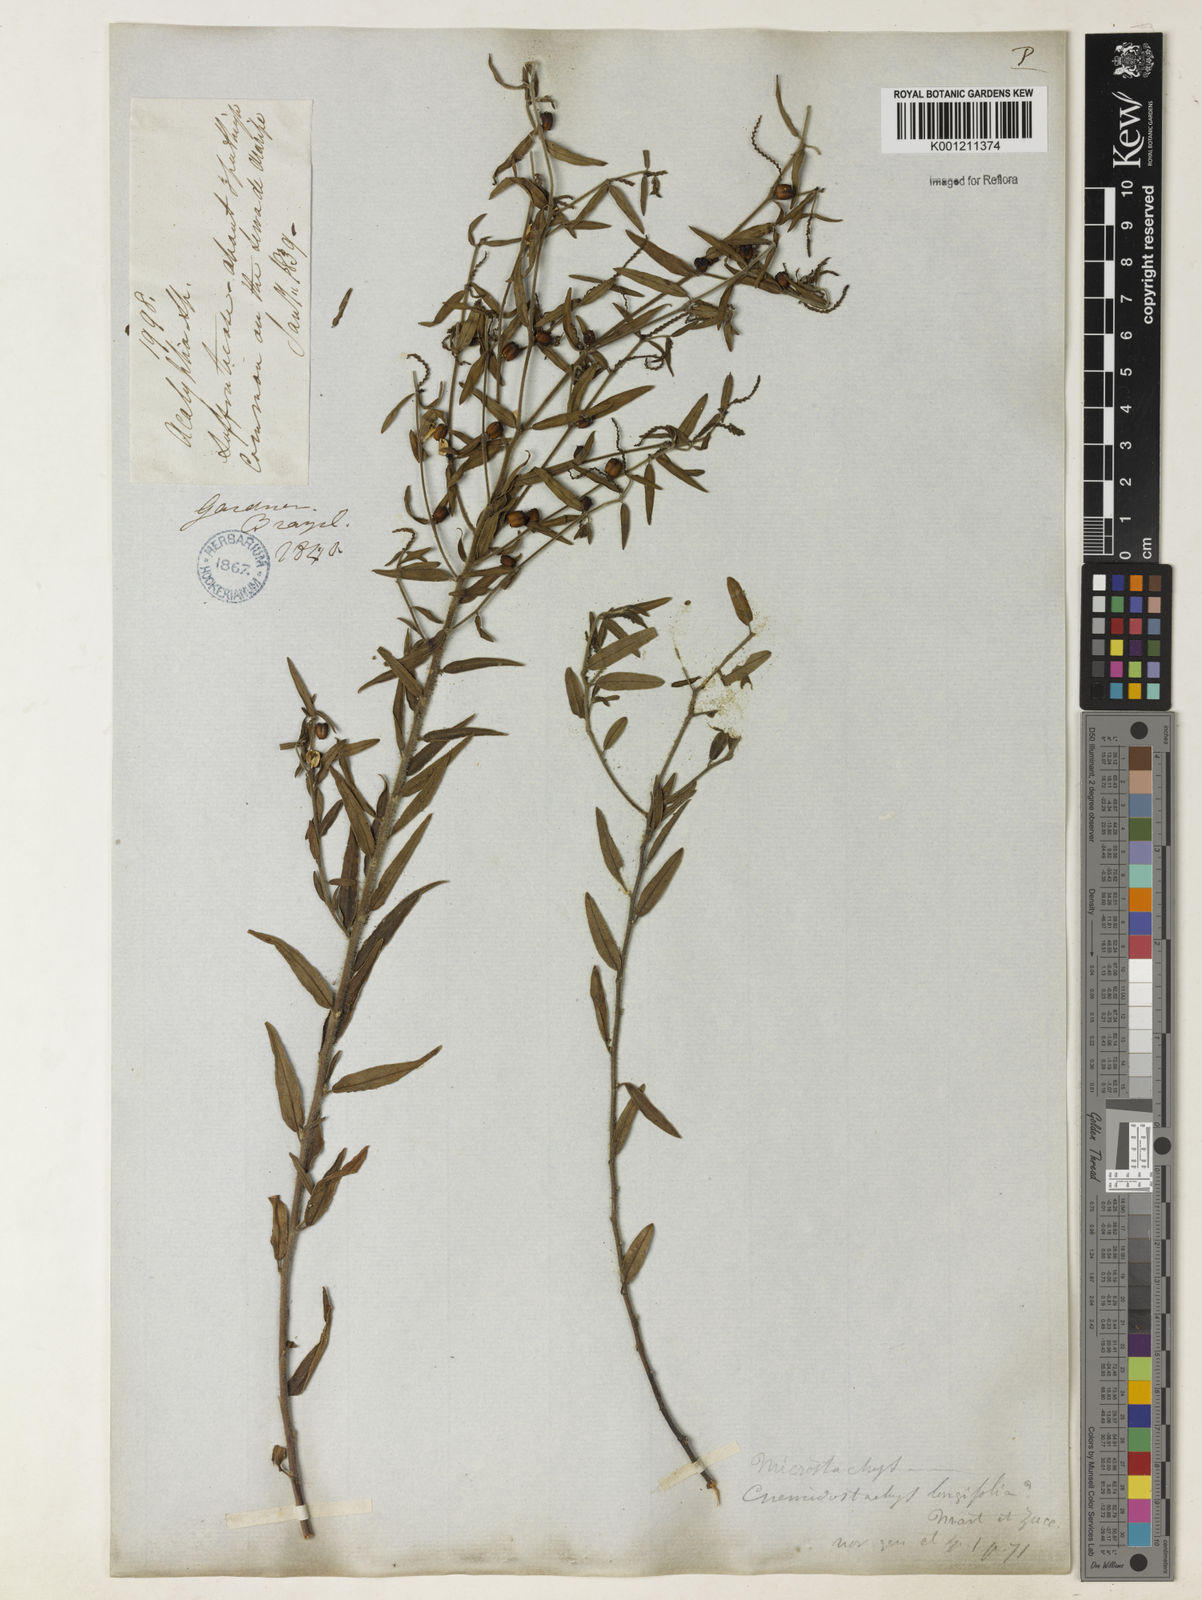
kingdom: Plantae
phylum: Tracheophyta
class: Magnoliopsida
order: Malpighiales
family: Euphorbiaceae
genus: Microstachys
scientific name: Microstachys corniculata
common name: Hato tejas
